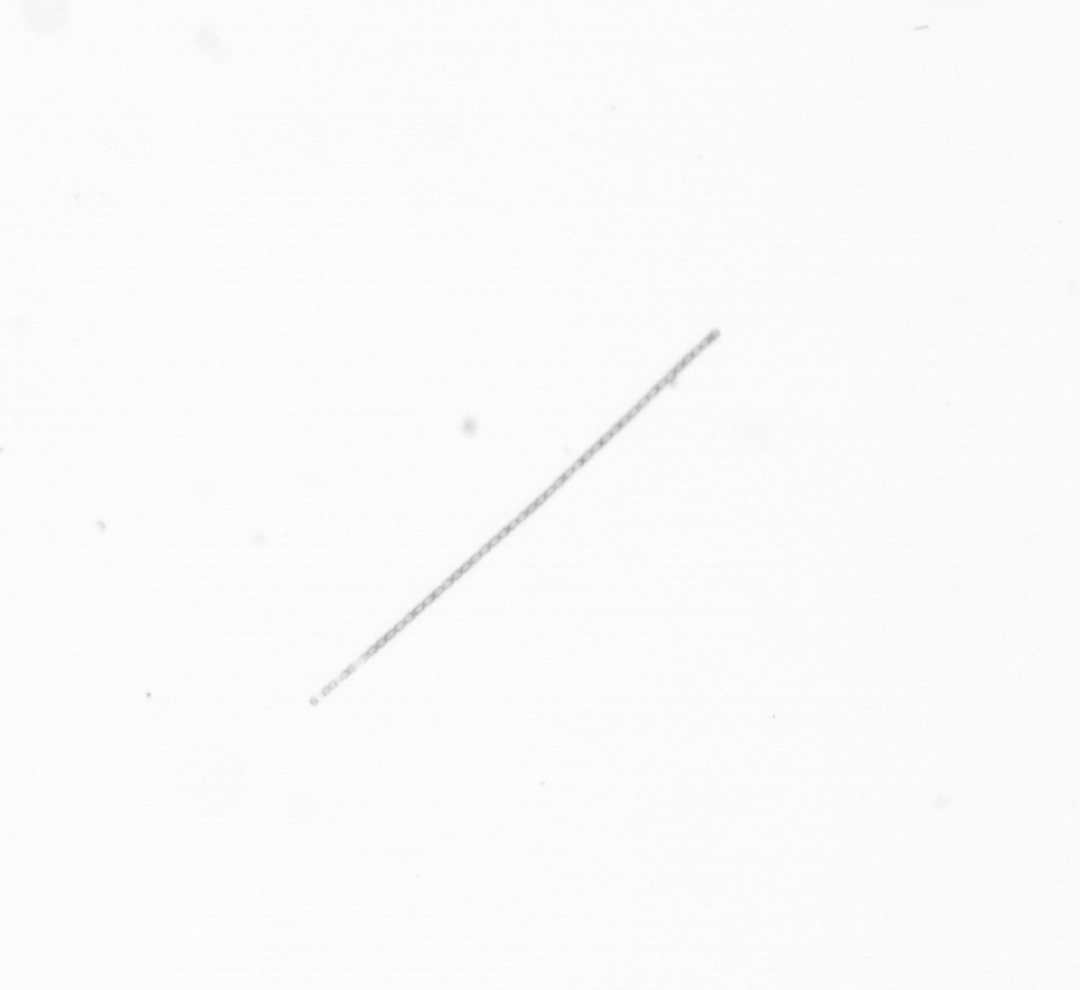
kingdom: Chromista
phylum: Ochrophyta
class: Bacillariophyceae
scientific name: Bacillariophyceae
